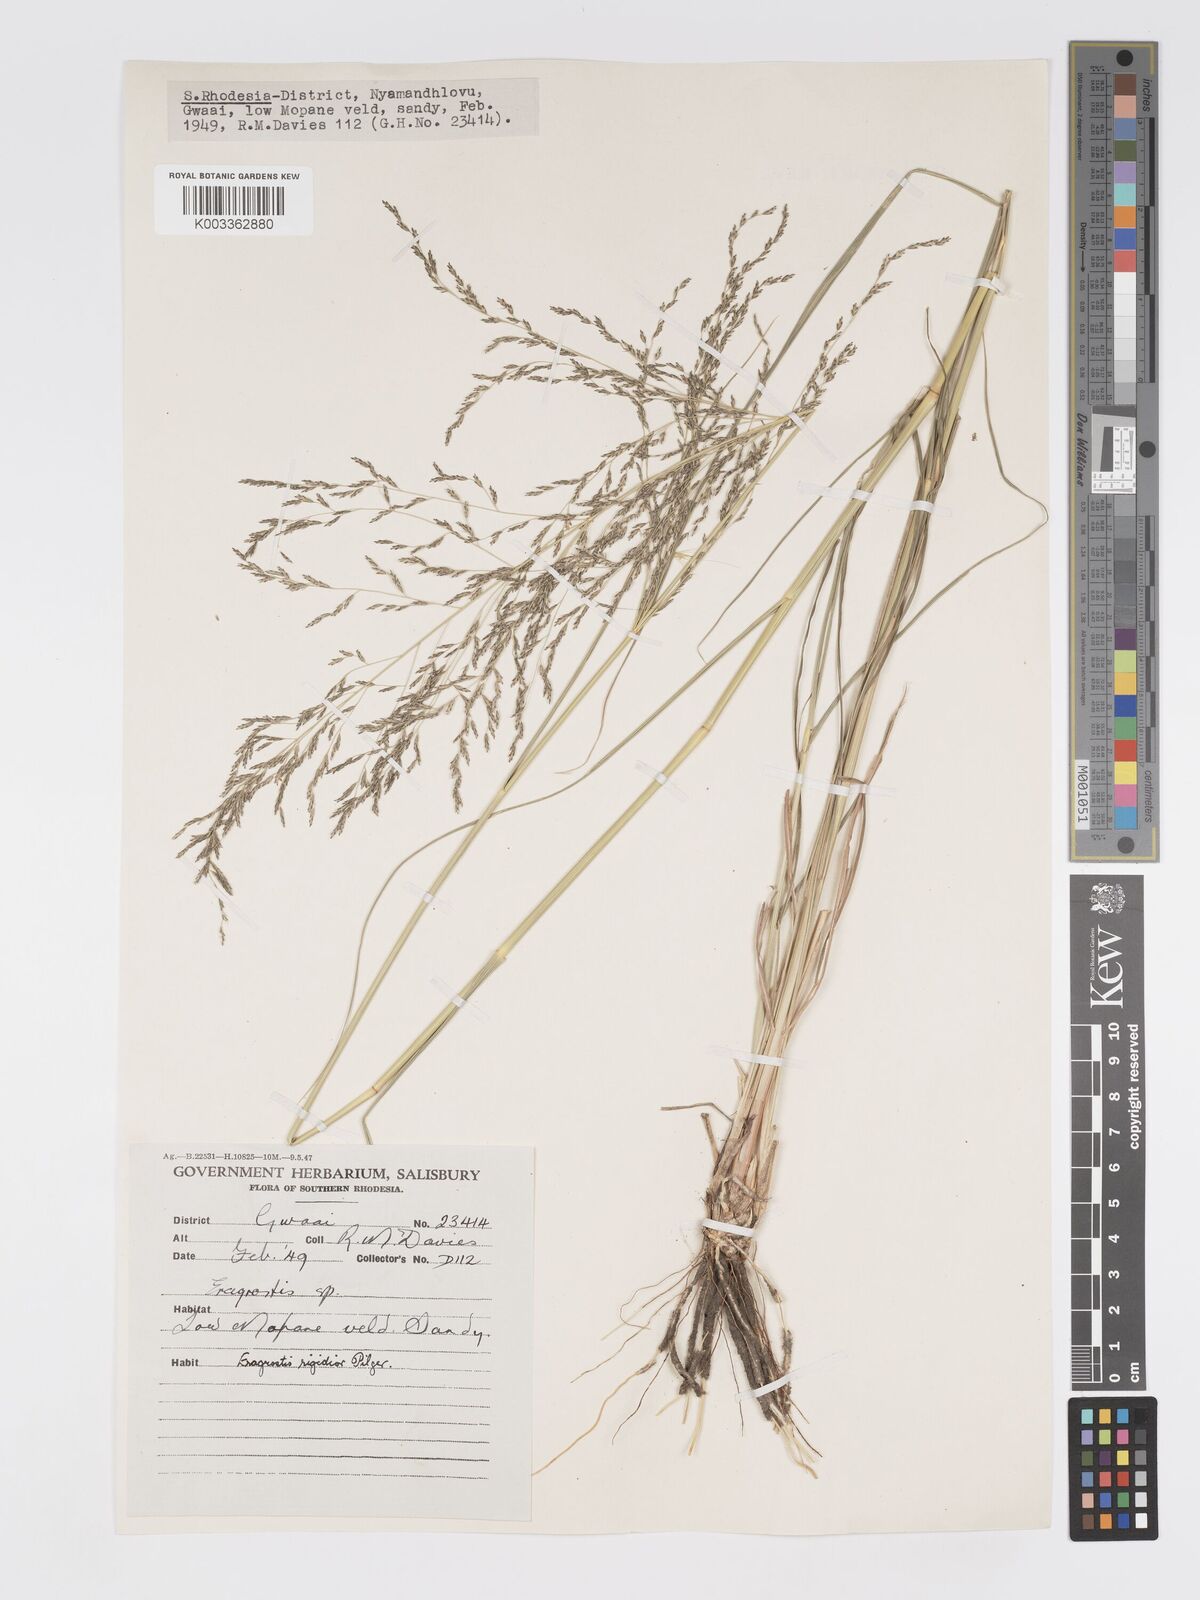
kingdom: Plantae
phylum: Tracheophyta
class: Liliopsida
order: Poales
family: Poaceae
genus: Eragrostis
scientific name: Eragrostis cylindriflora
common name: Cylinderflower lovegrass
